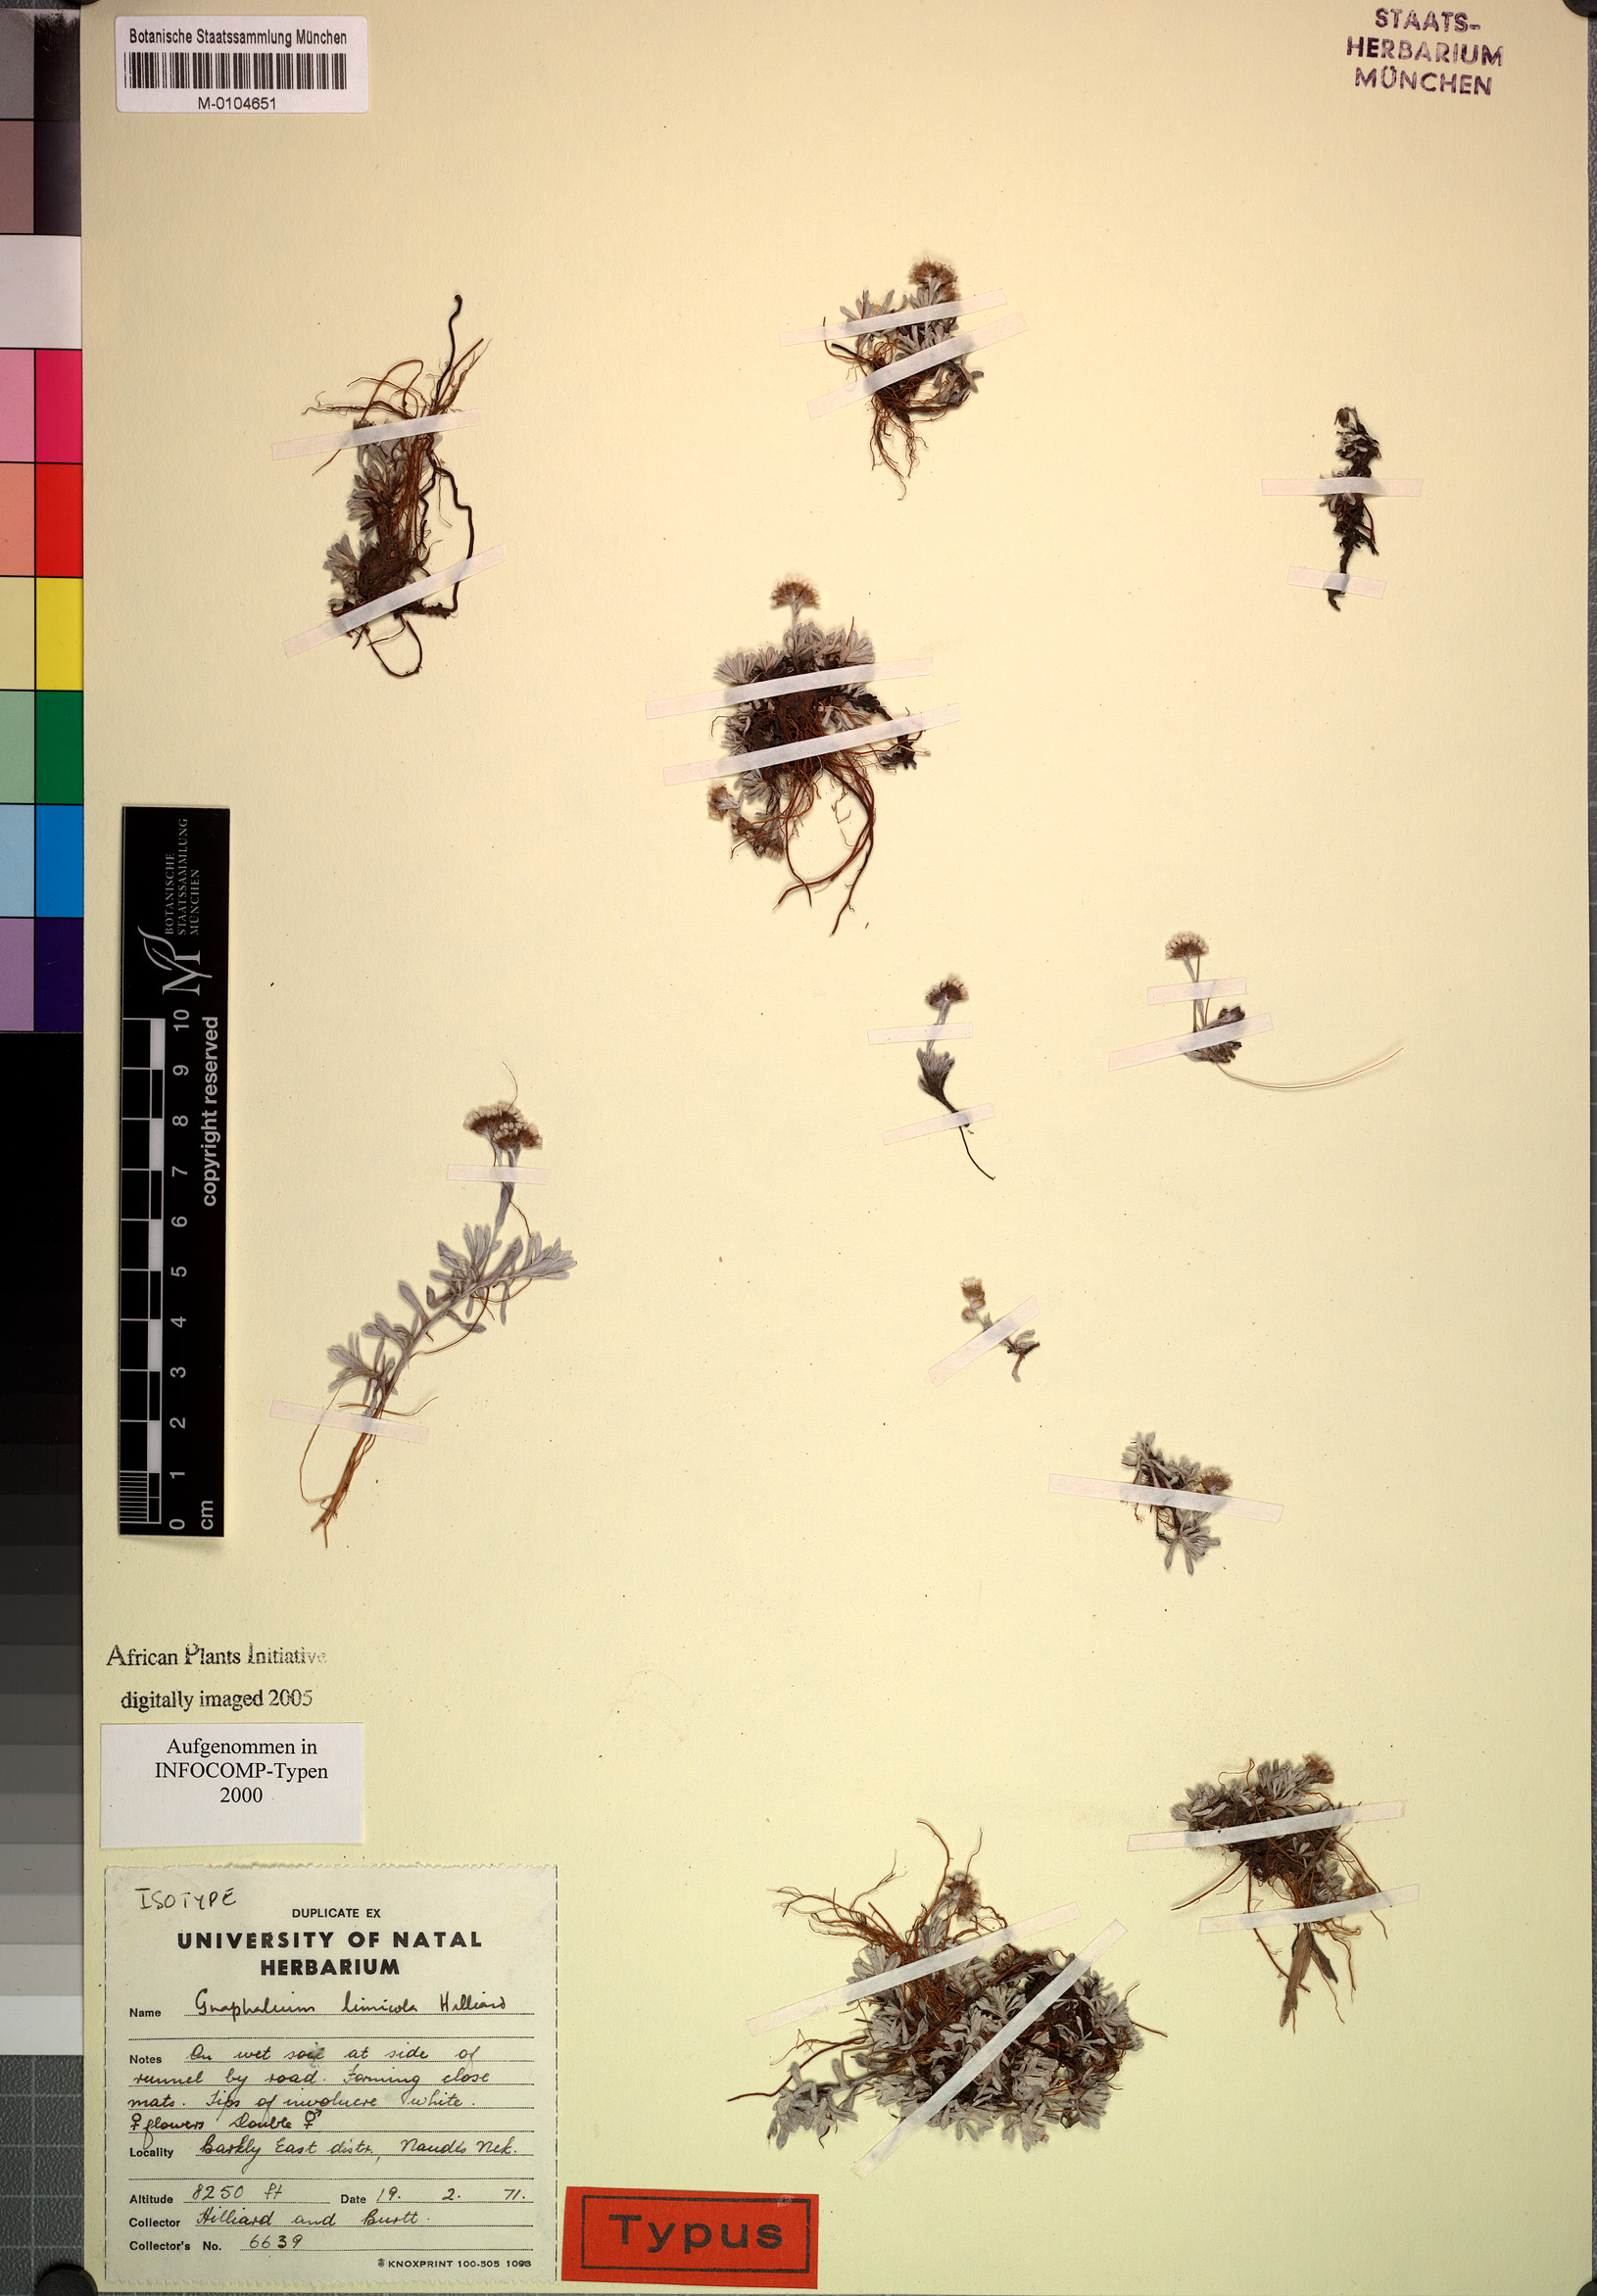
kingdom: Plantae
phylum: Tracheophyta
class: Magnoliopsida
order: Asterales
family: Asteraceae
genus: Gnaphalium
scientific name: Gnaphalium limicola
